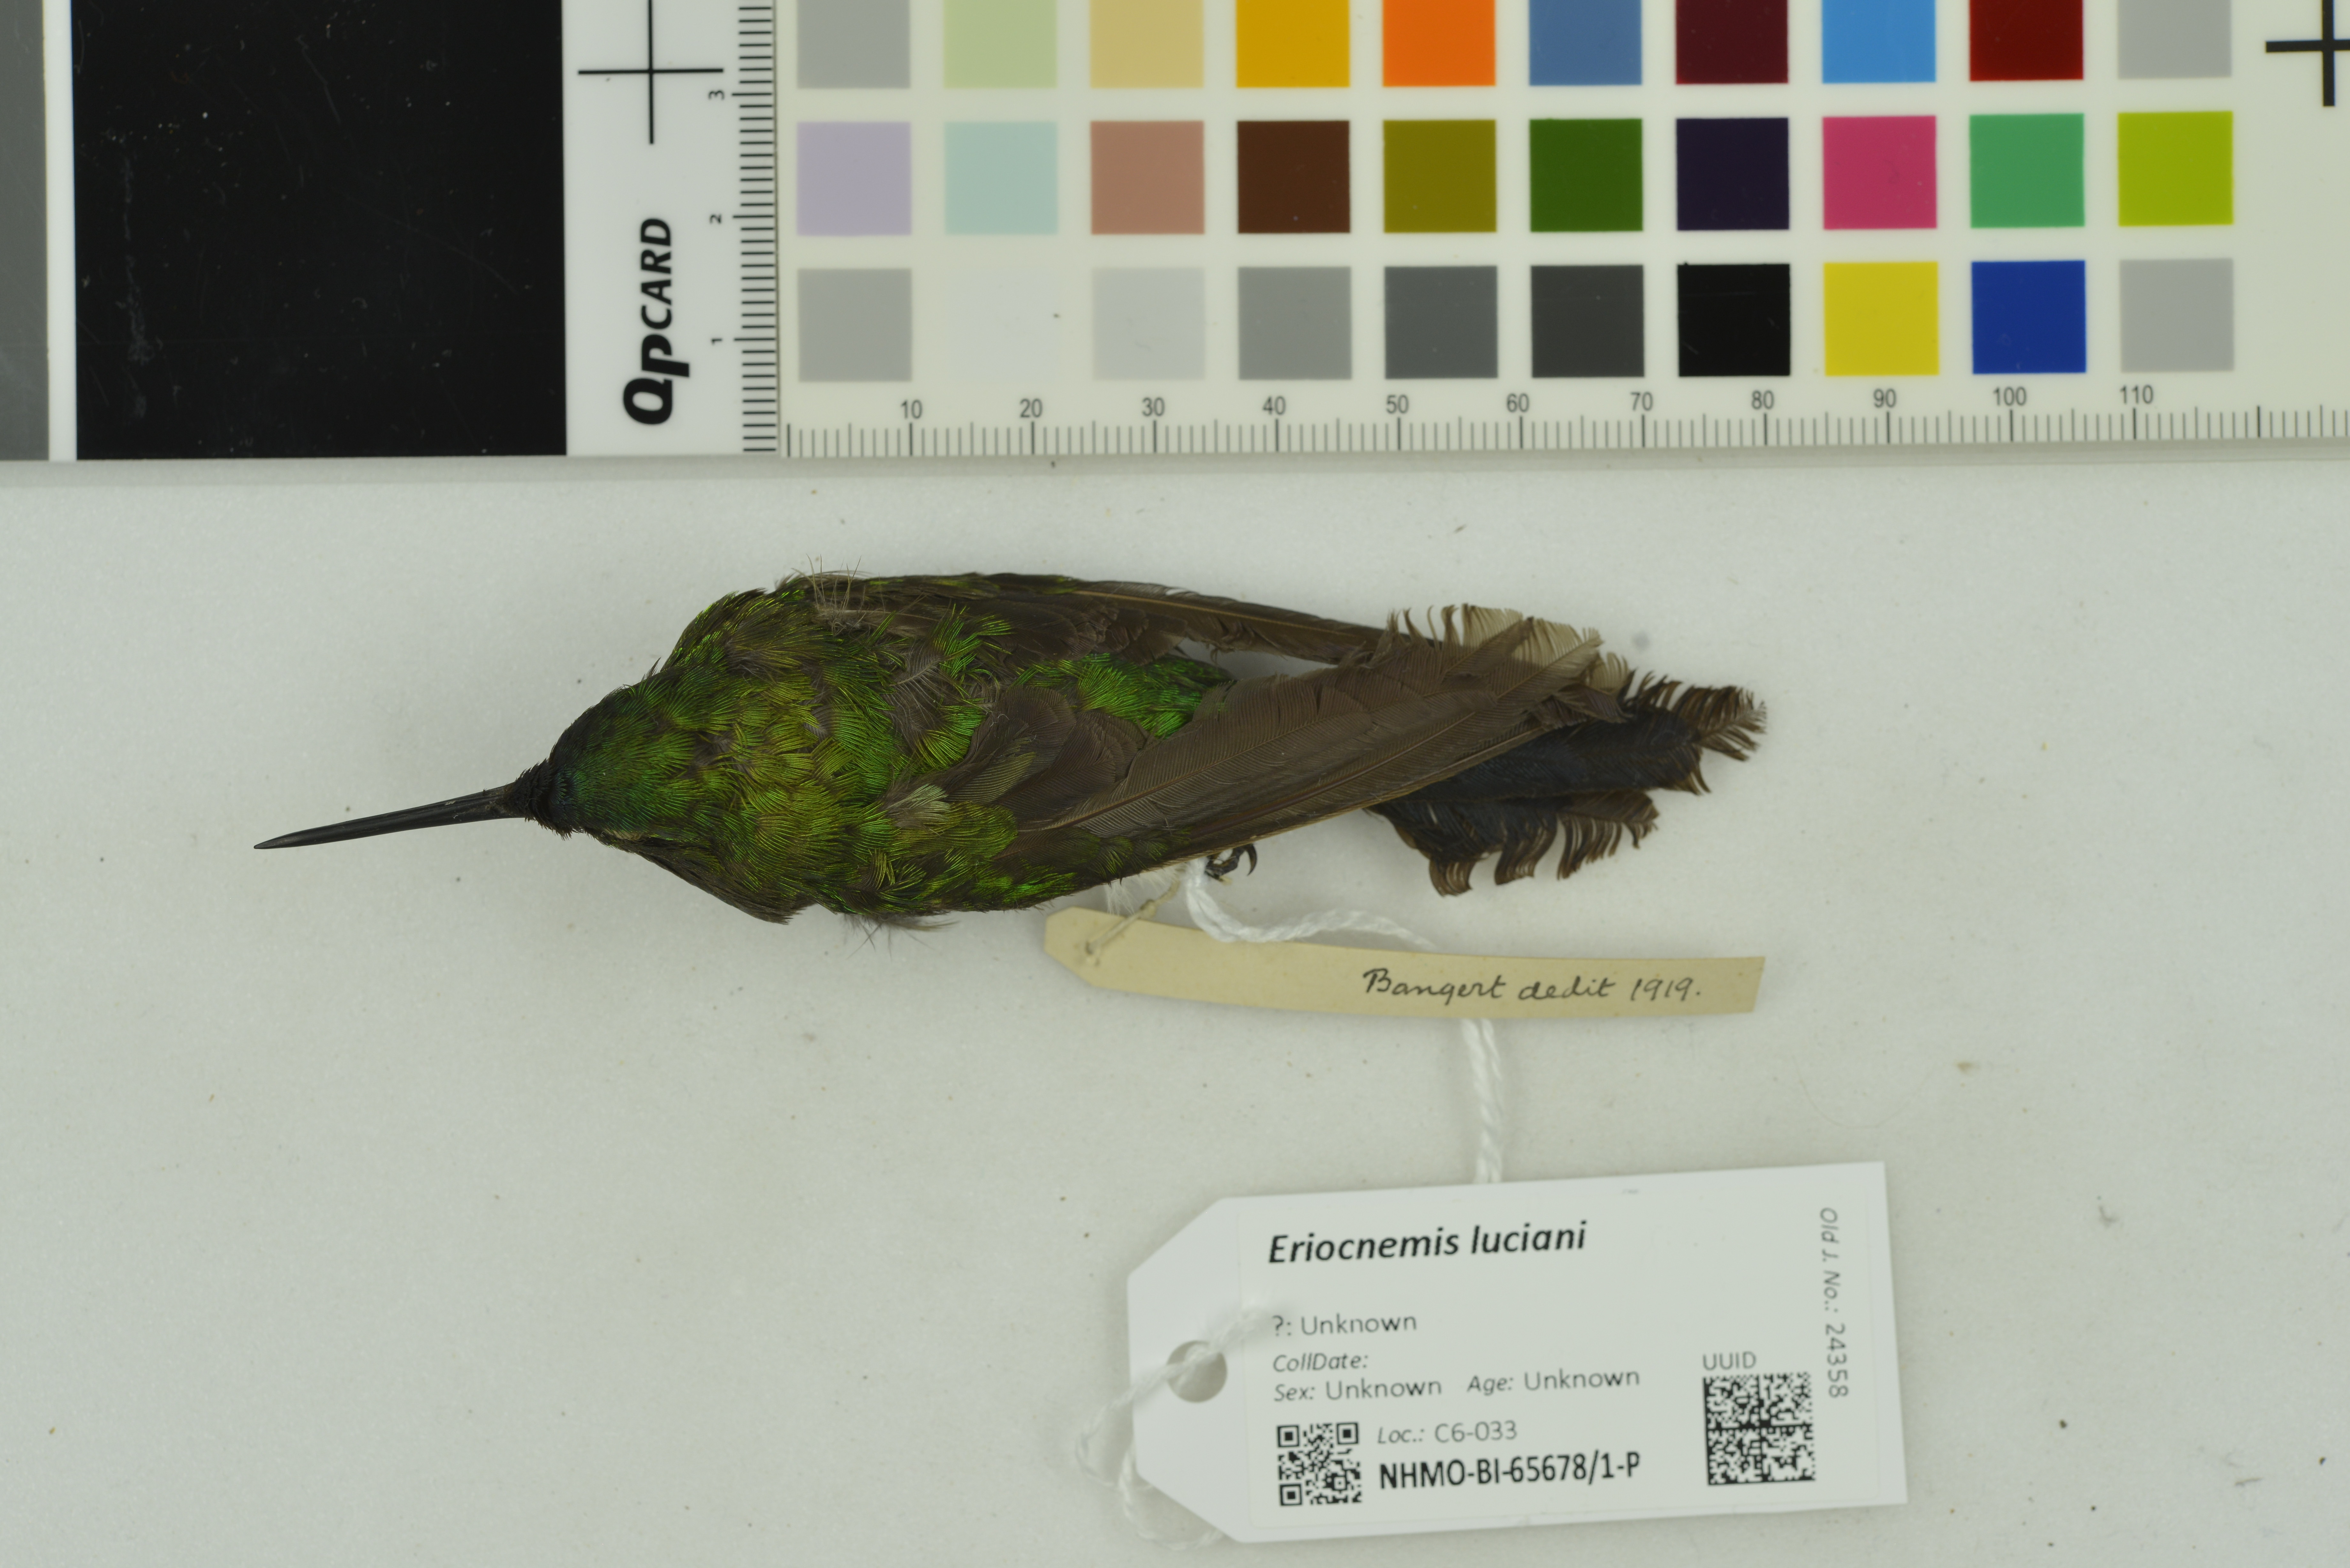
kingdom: Animalia
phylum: Chordata
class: Aves
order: Apodiformes
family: Trochilidae
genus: Eriocnemis
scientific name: Eriocnemis luciani
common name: Sapphire-vented puffleg
